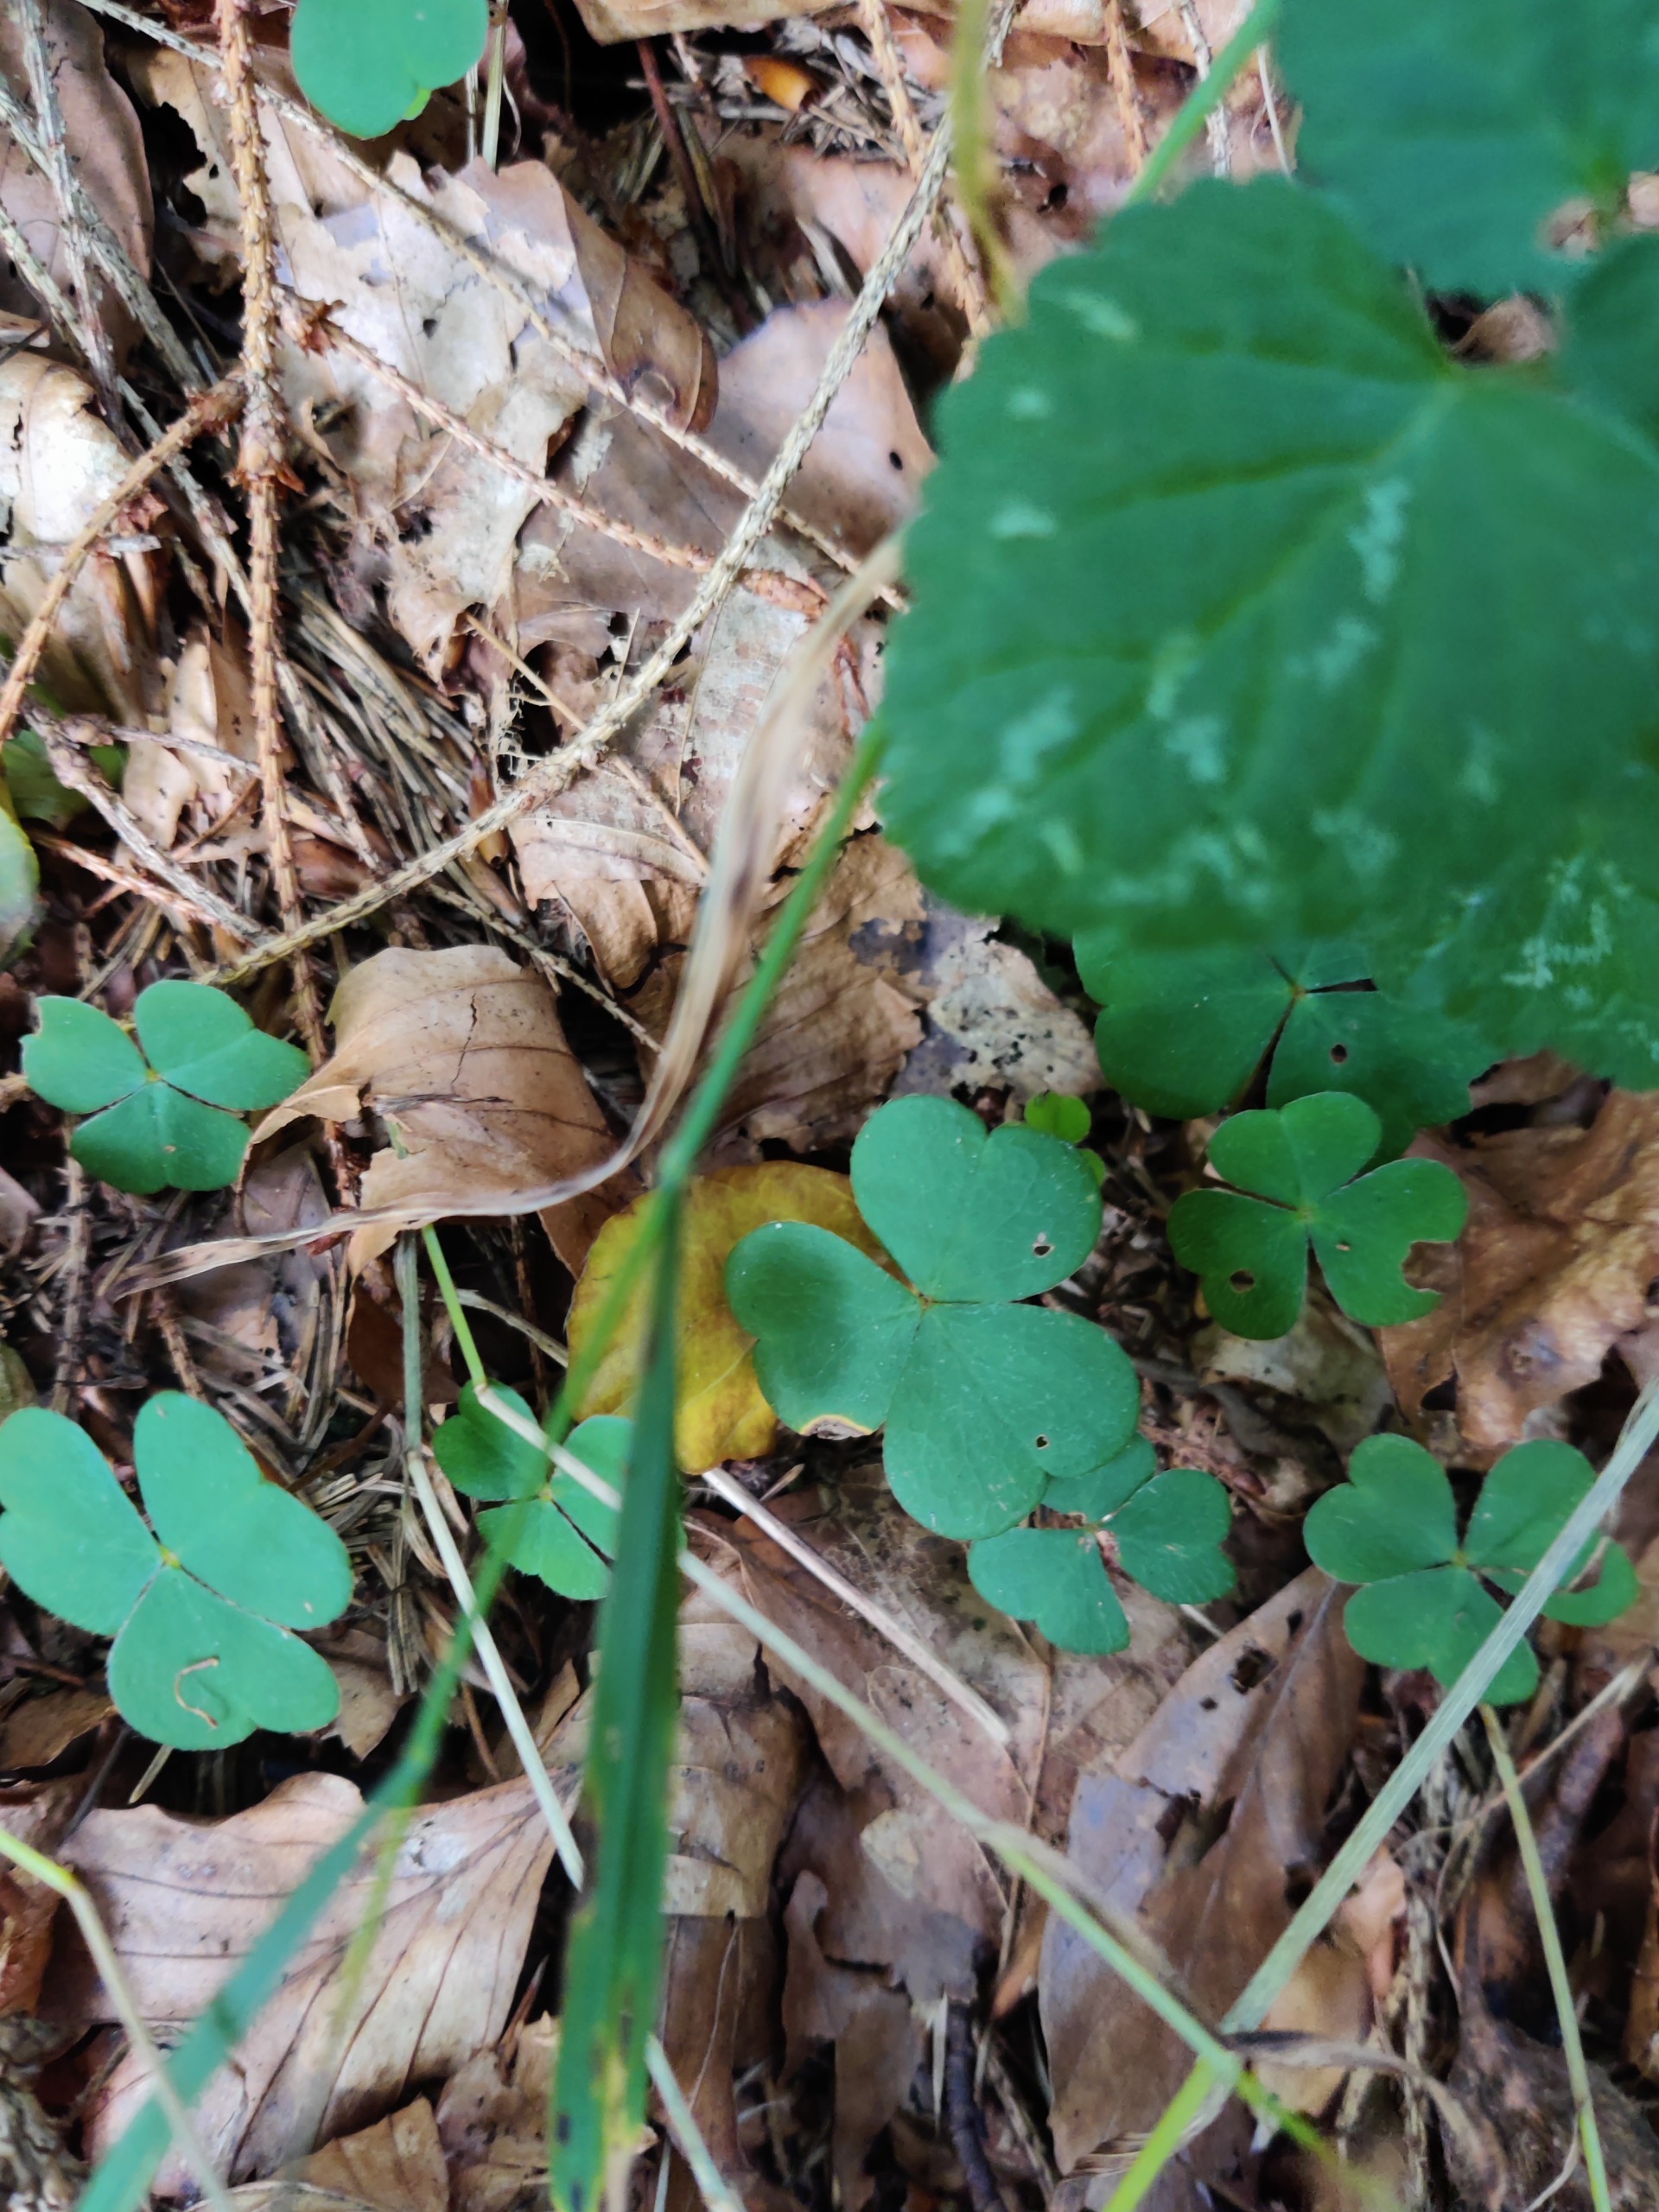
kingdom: Plantae
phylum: Tracheophyta
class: Magnoliopsida
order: Oxalidales
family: Oxalidaceae
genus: Oxalis
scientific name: Oxalis acetosella
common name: Skovsyre
